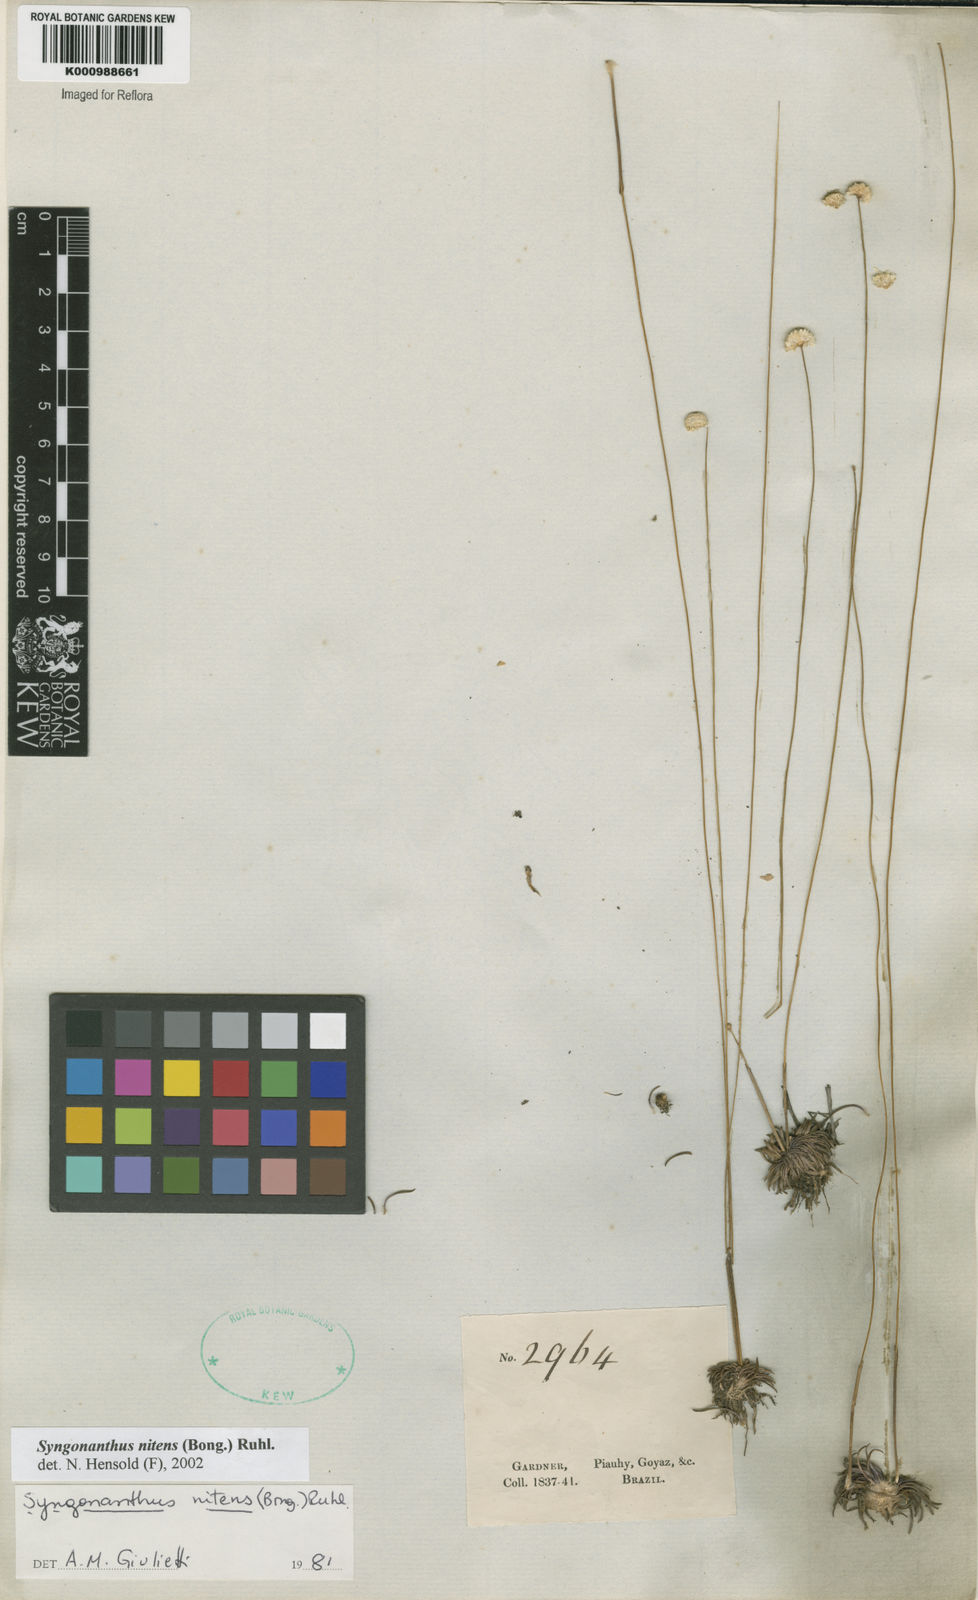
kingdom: Plantae
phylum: Tracheophyta
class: Liliopsida
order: Poales
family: Eriocaulaceae
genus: Syngonanthus
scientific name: Syngonanthus nitens
